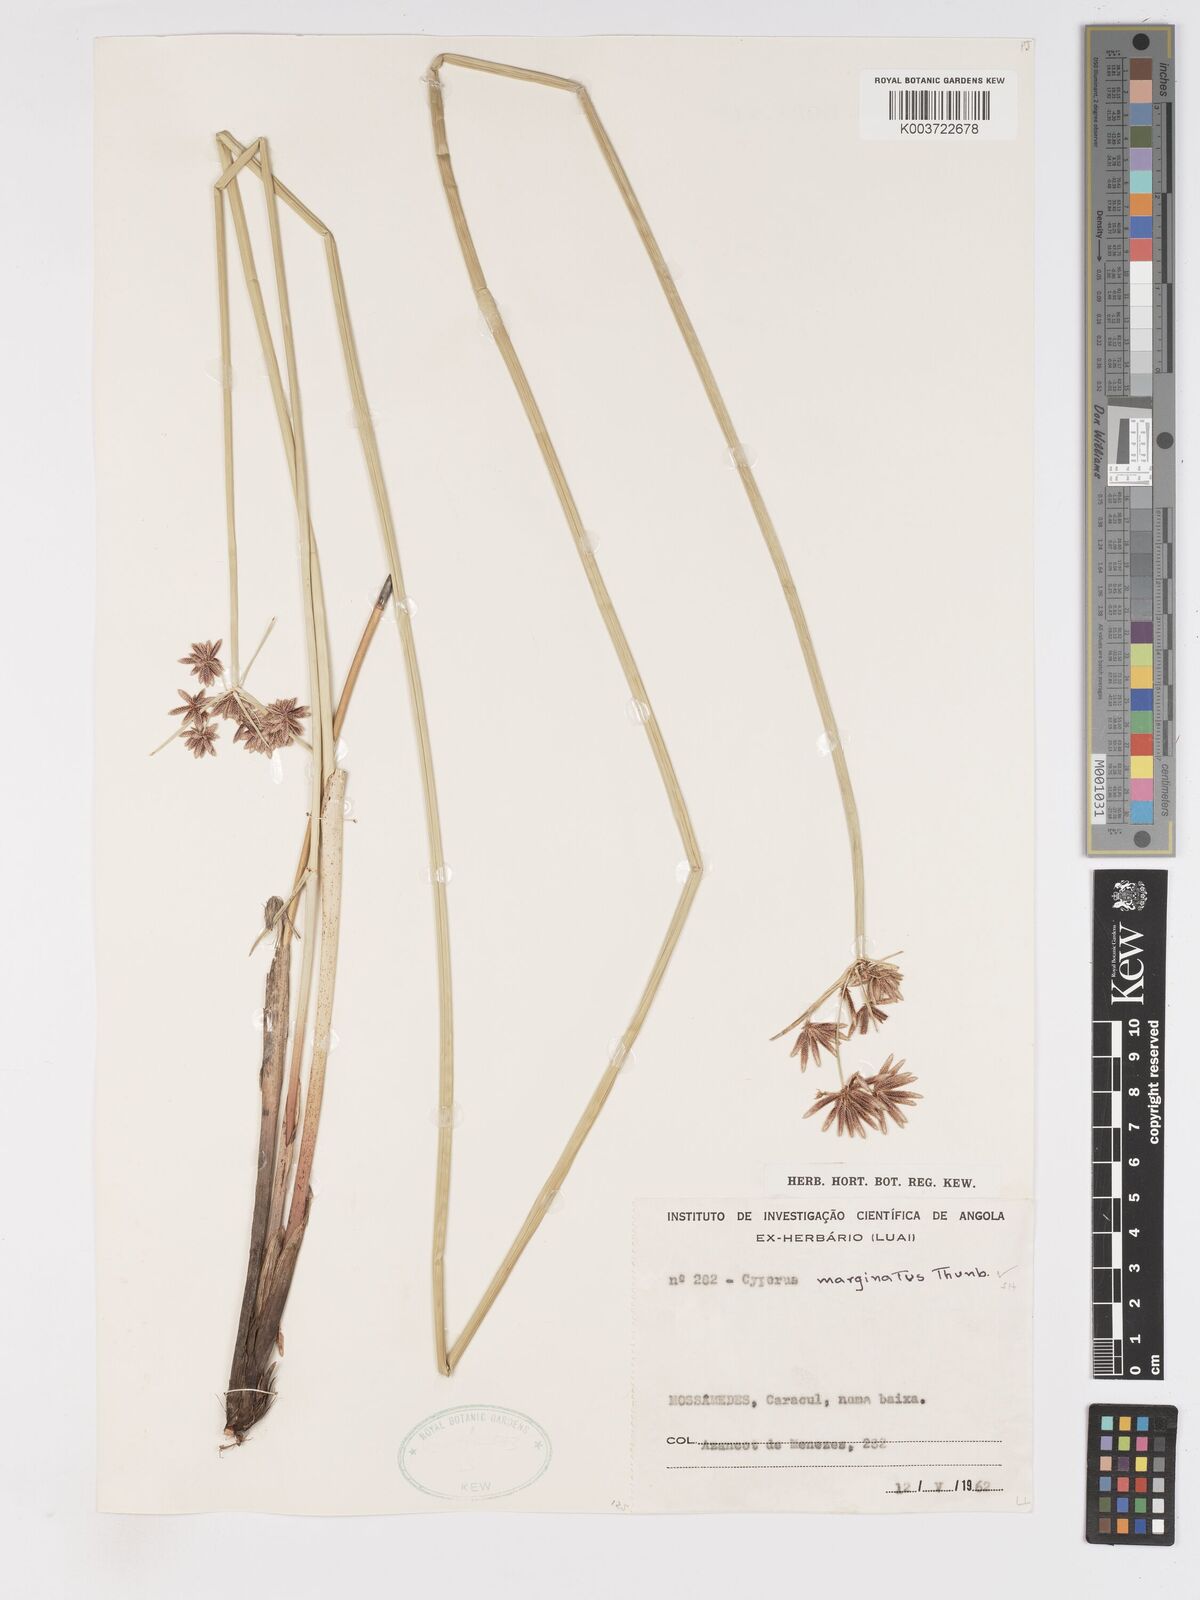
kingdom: Plantae
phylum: Tracheophyta
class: Liliopsida
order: Poales
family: Cyperaceae
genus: Cyperus
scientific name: Cyperus marginatus
